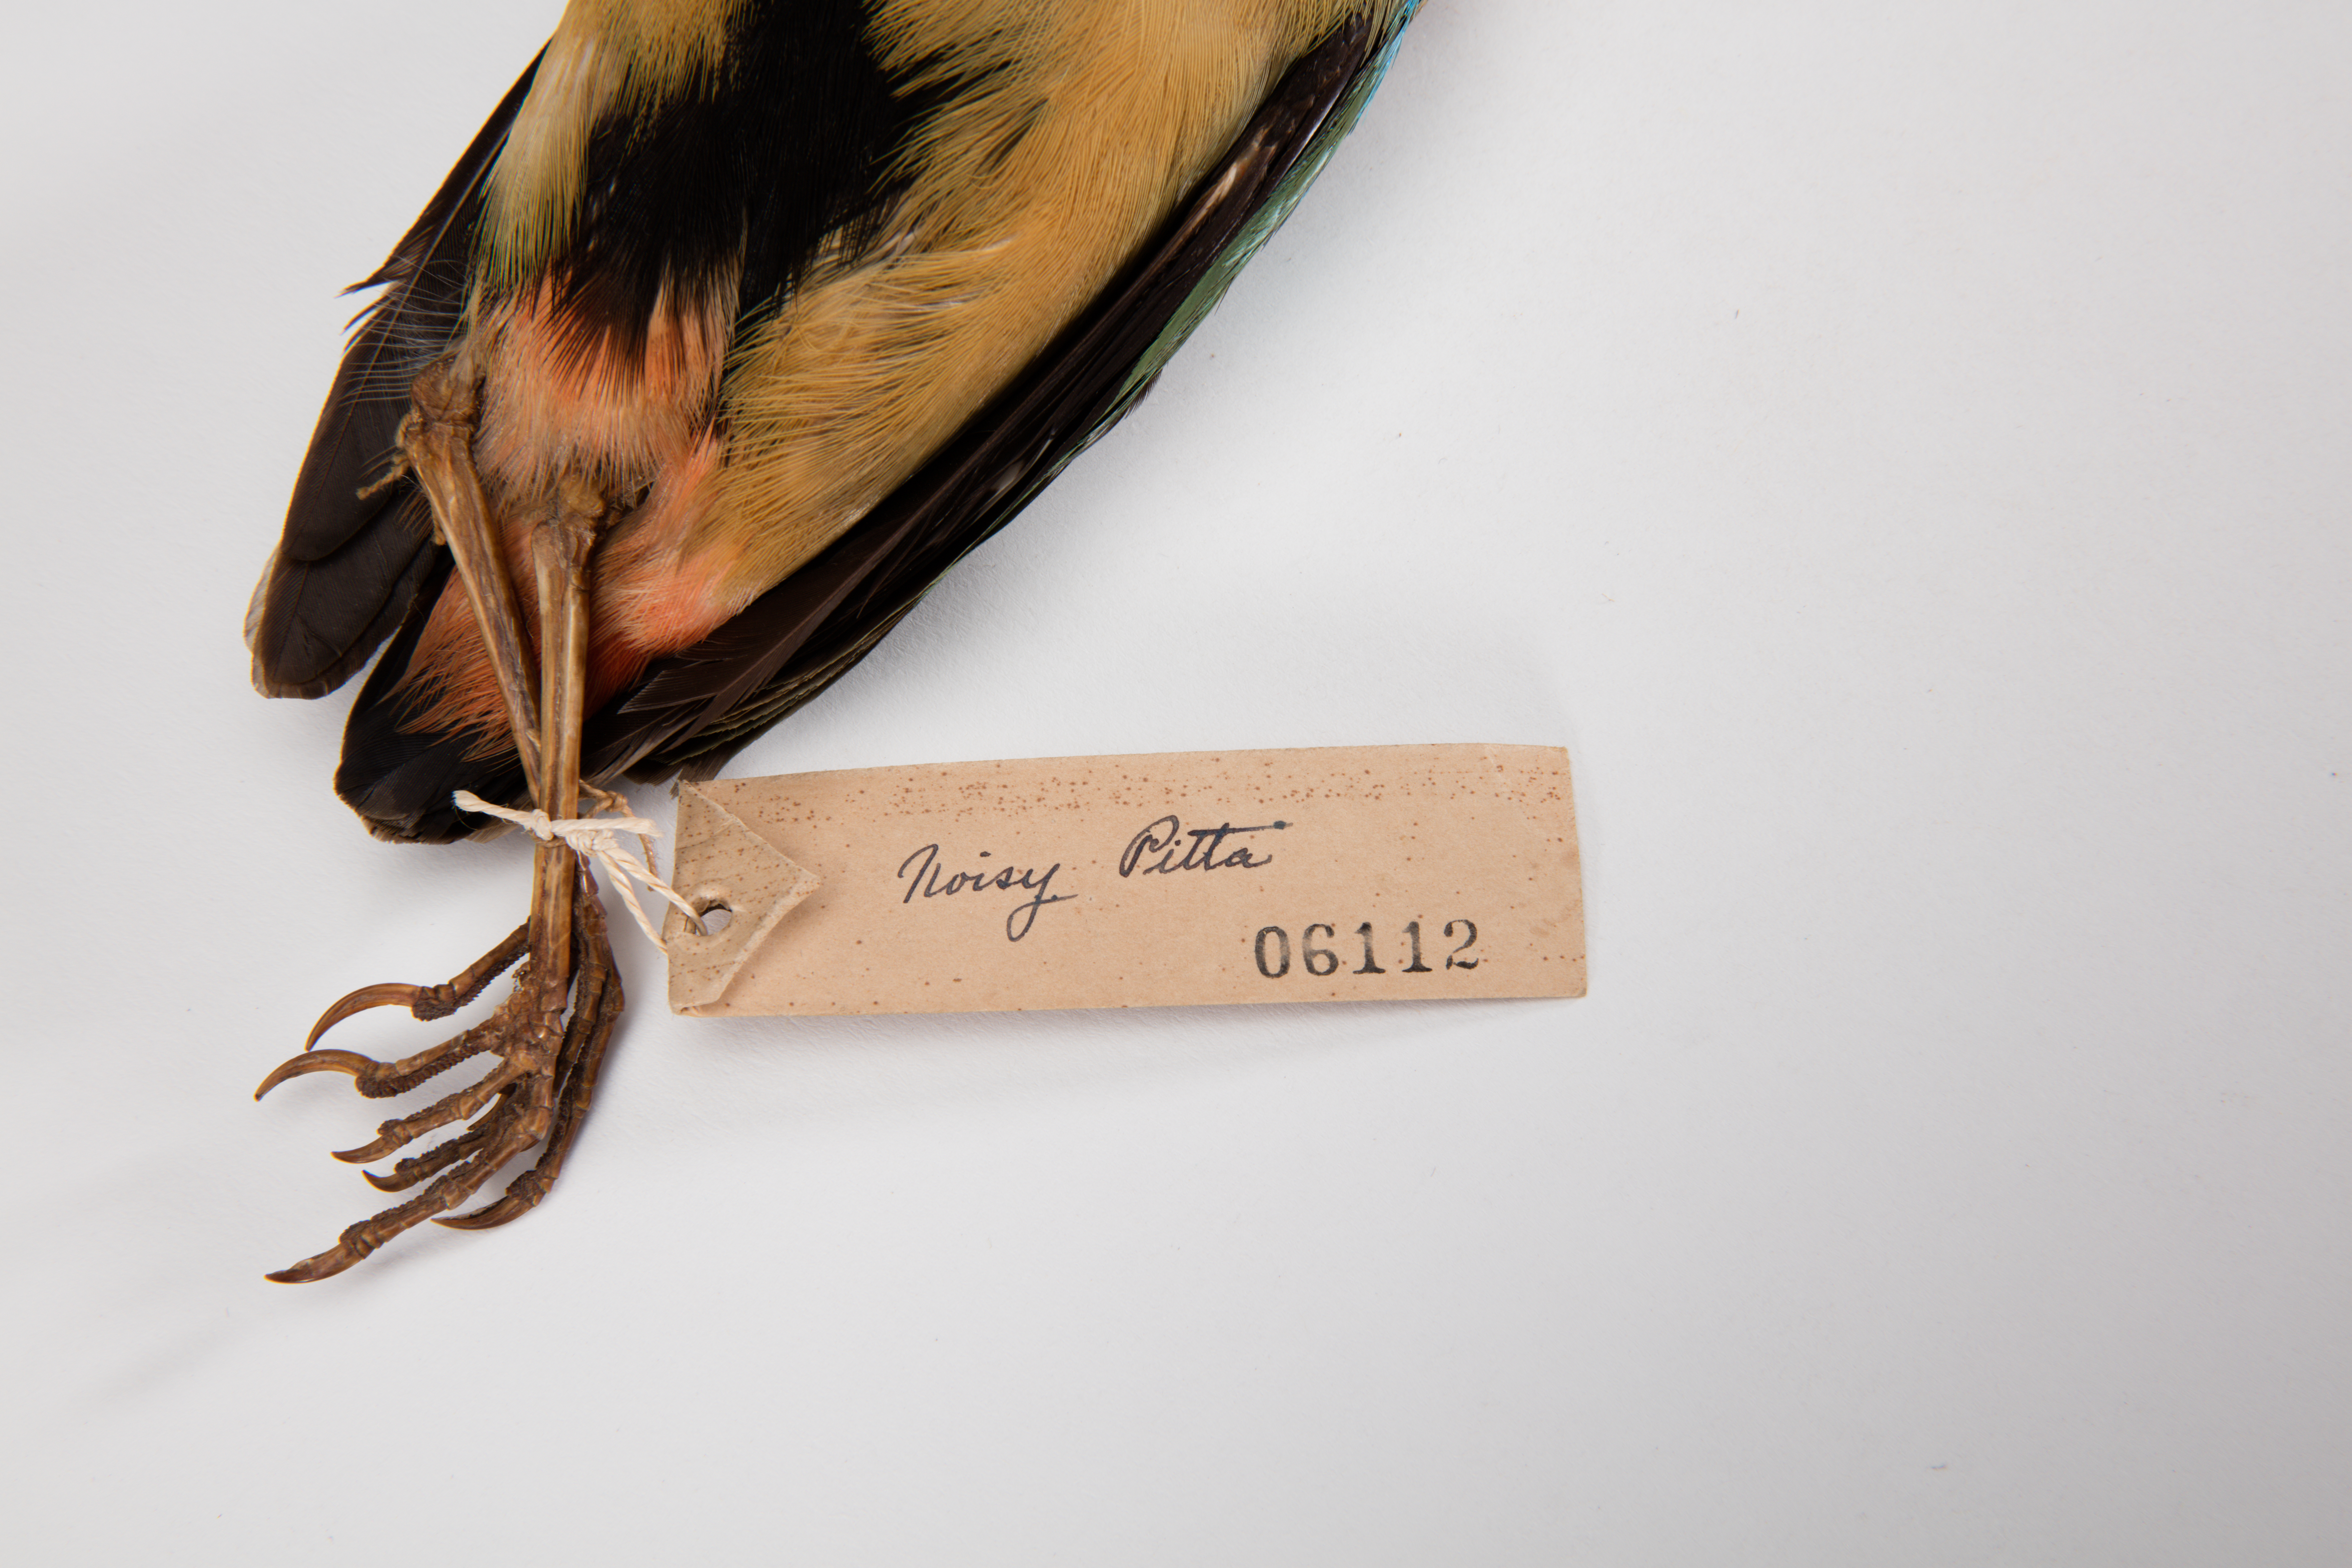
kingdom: Animalia
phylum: Chordata
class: Aves
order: Passeriformes
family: Pittidae
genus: Pitta
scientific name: Pitta versicolor
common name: Noisy pitta
